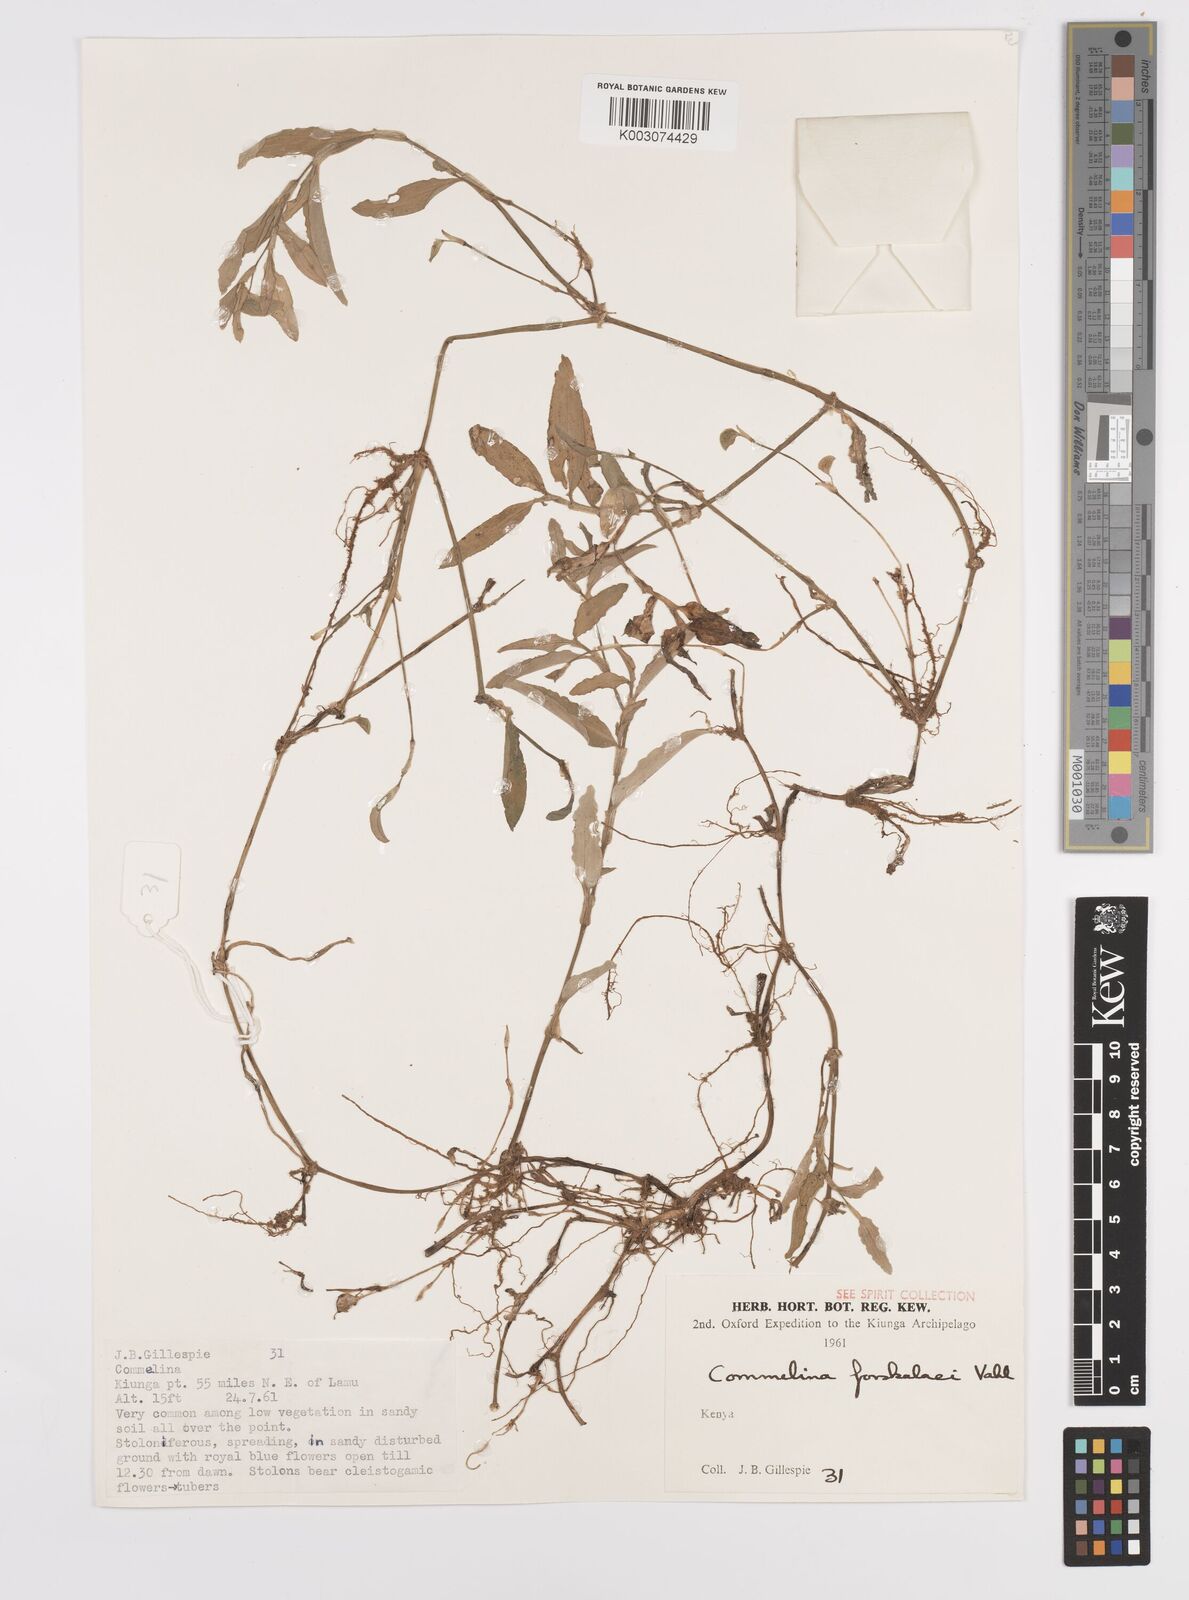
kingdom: Plantae
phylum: Tracheophyta
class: Liliopsida
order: Commelinales
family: Commelinaceae
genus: Commelina
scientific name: Commelina forskaolii
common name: Rat's ear
